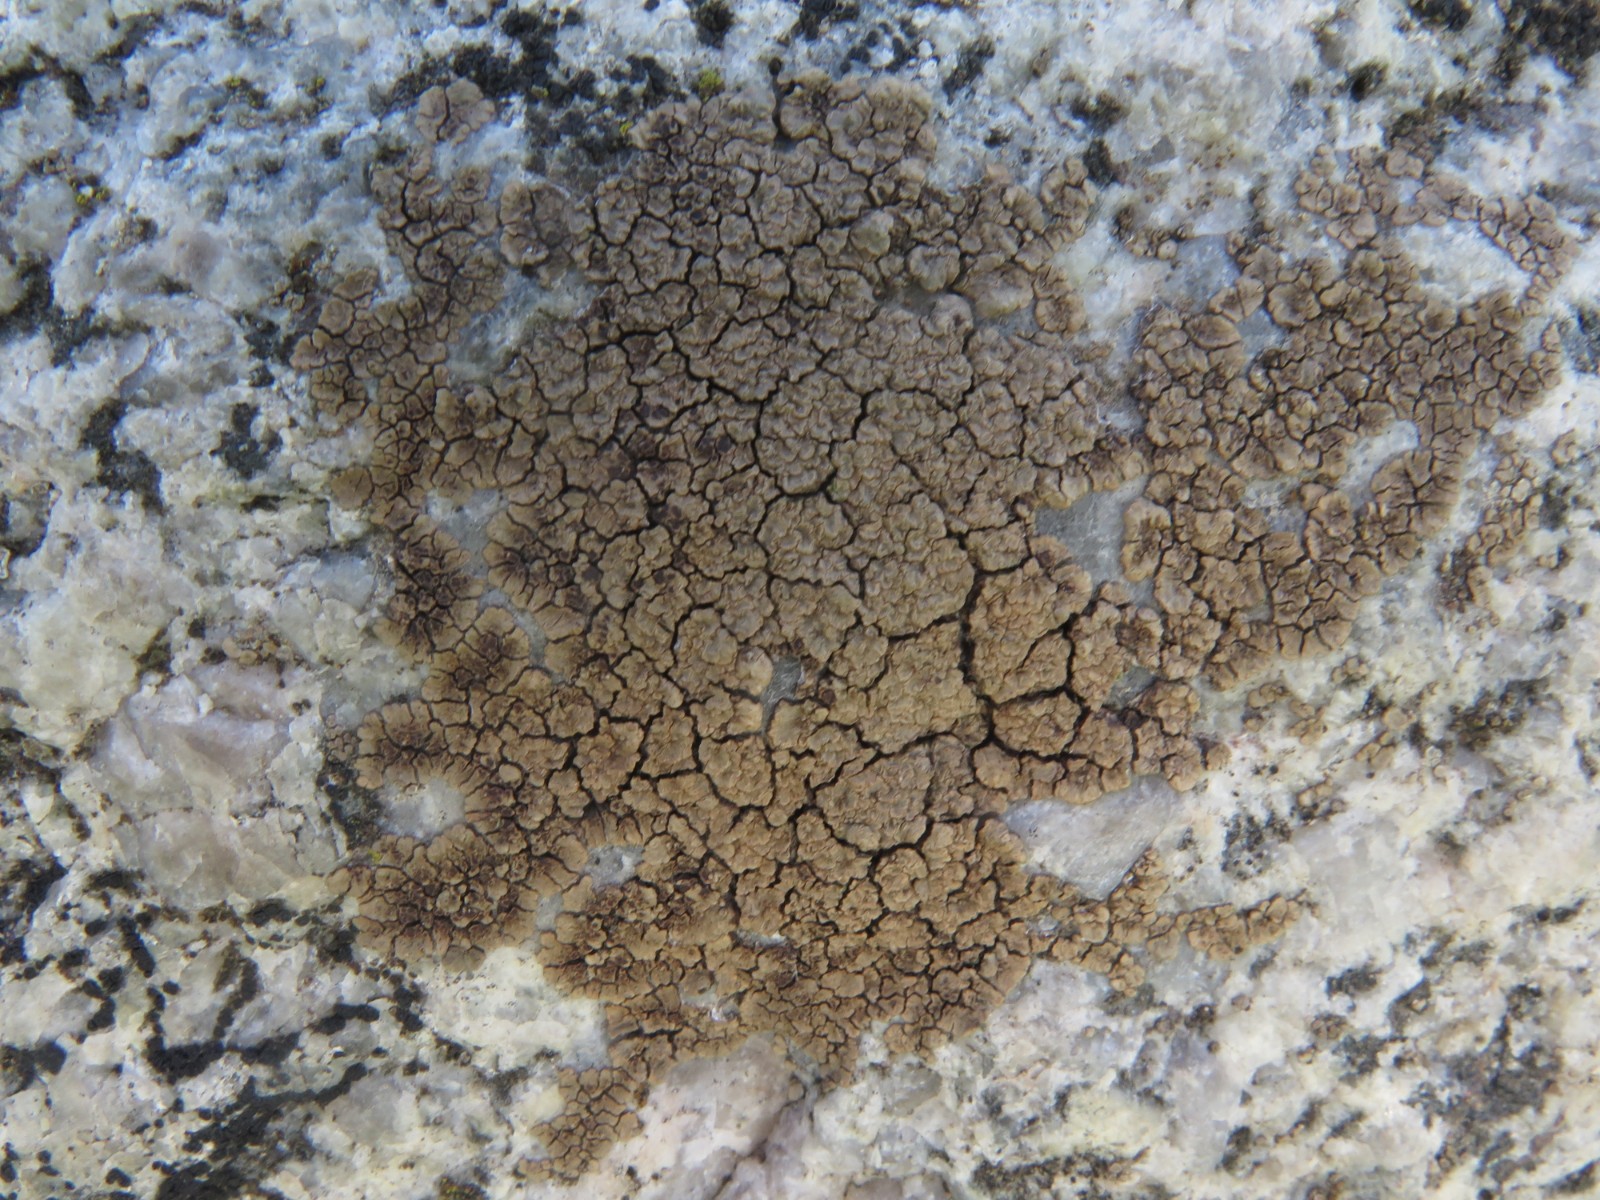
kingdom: Fungi
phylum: Ascomycota
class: Lecanoromycetes
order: Acarosporales
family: Acarosporaceae
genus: Acarospora
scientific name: Acarospora fuscata
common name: brun småsporelav
